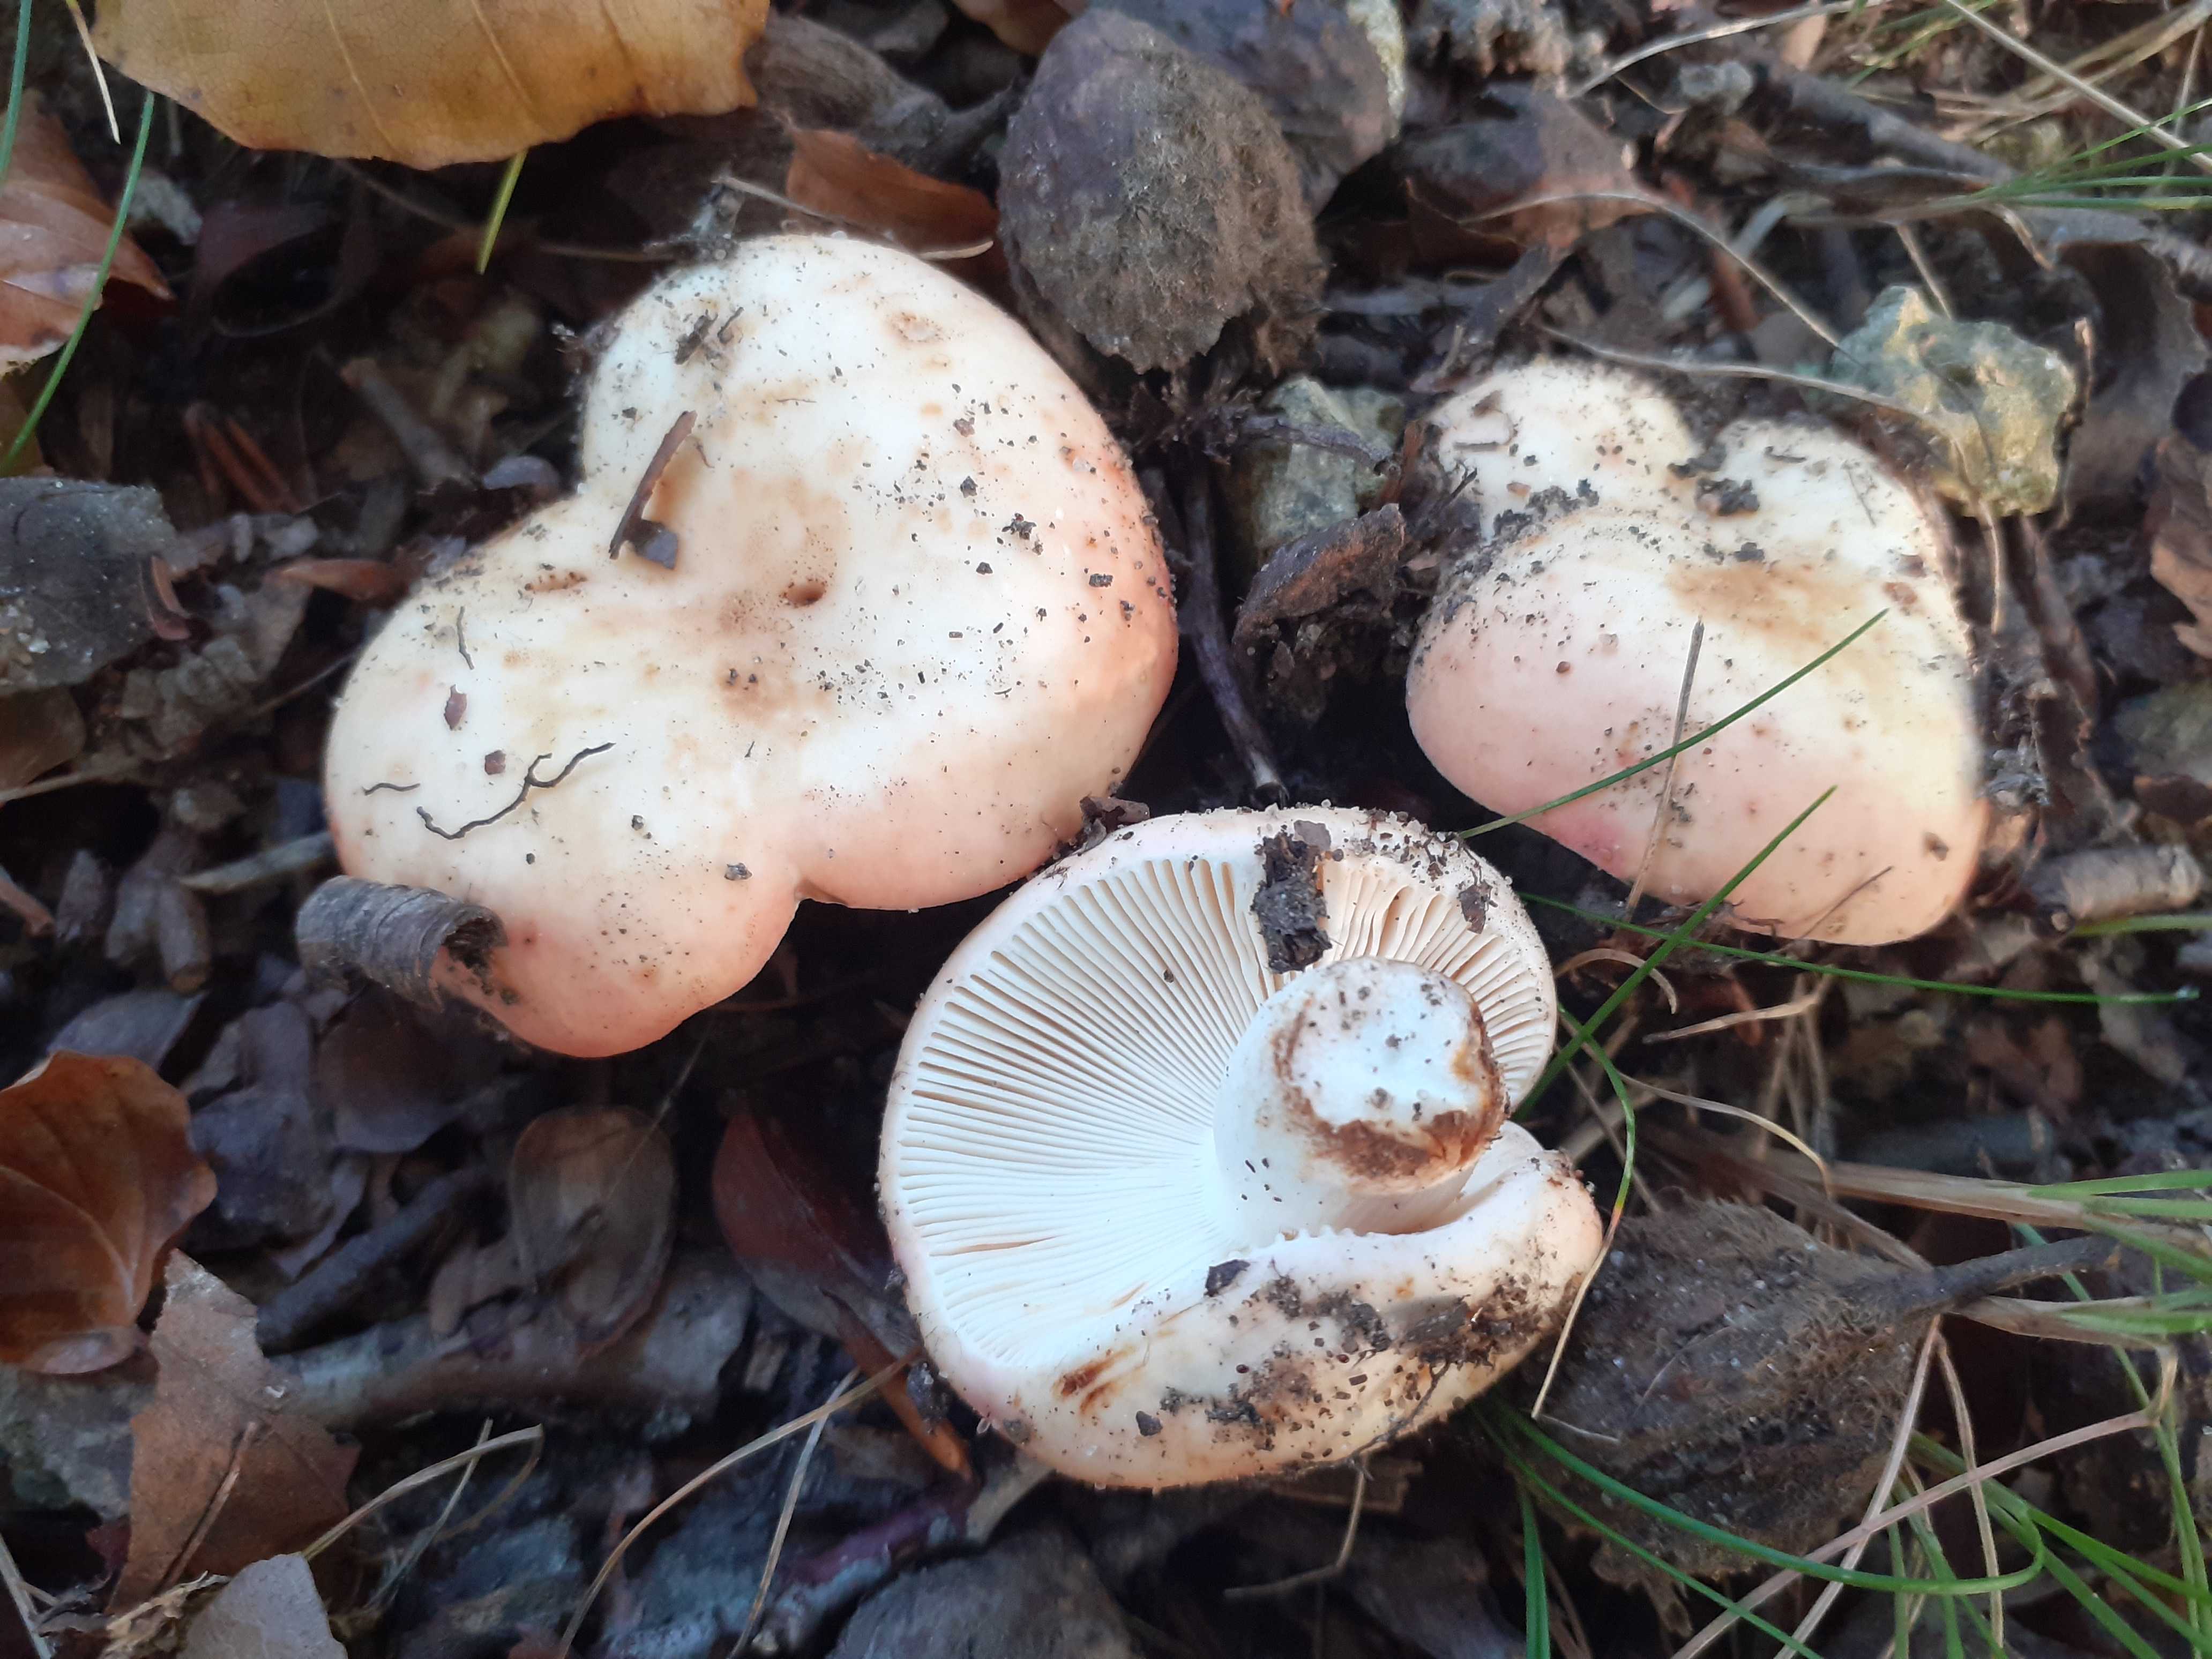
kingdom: Fungi
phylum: Basidiomycota
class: Agaricomycetes
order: Russulales
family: Russulaceae
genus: Russula
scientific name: Russula maculata
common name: plettet skørhat
